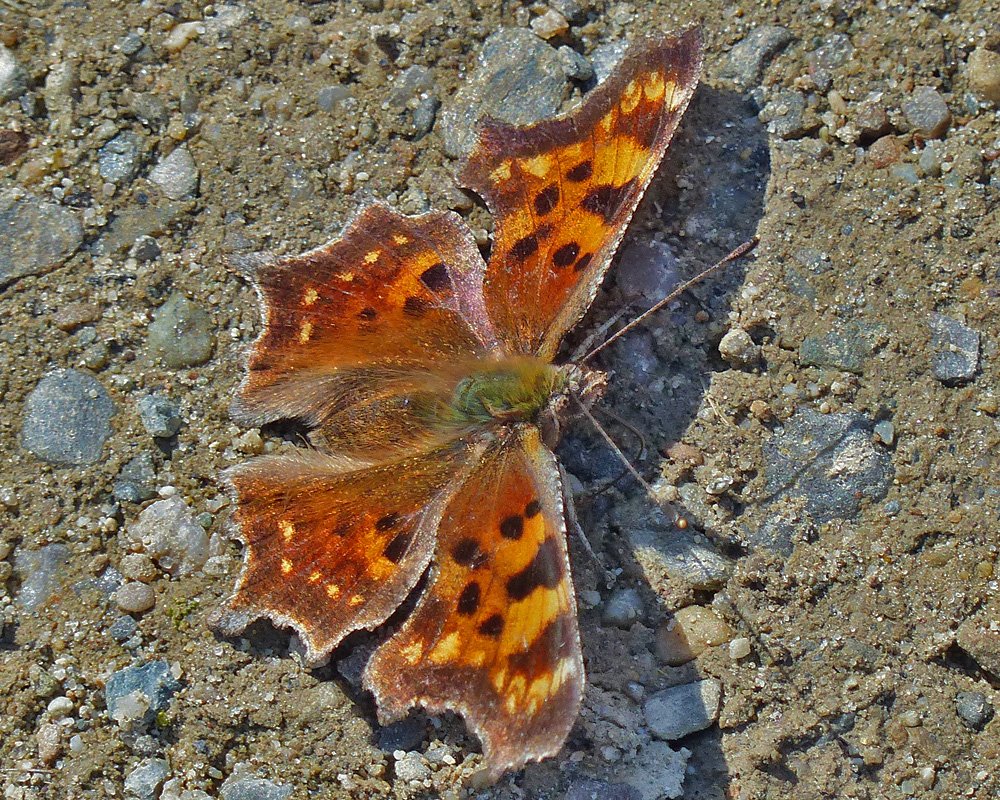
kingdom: Animalia
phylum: Arthropoda
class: Insecta
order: Lepidoptera
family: Nymphalidae
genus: Polygonia
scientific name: Polygonia faunus
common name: Green Comma
